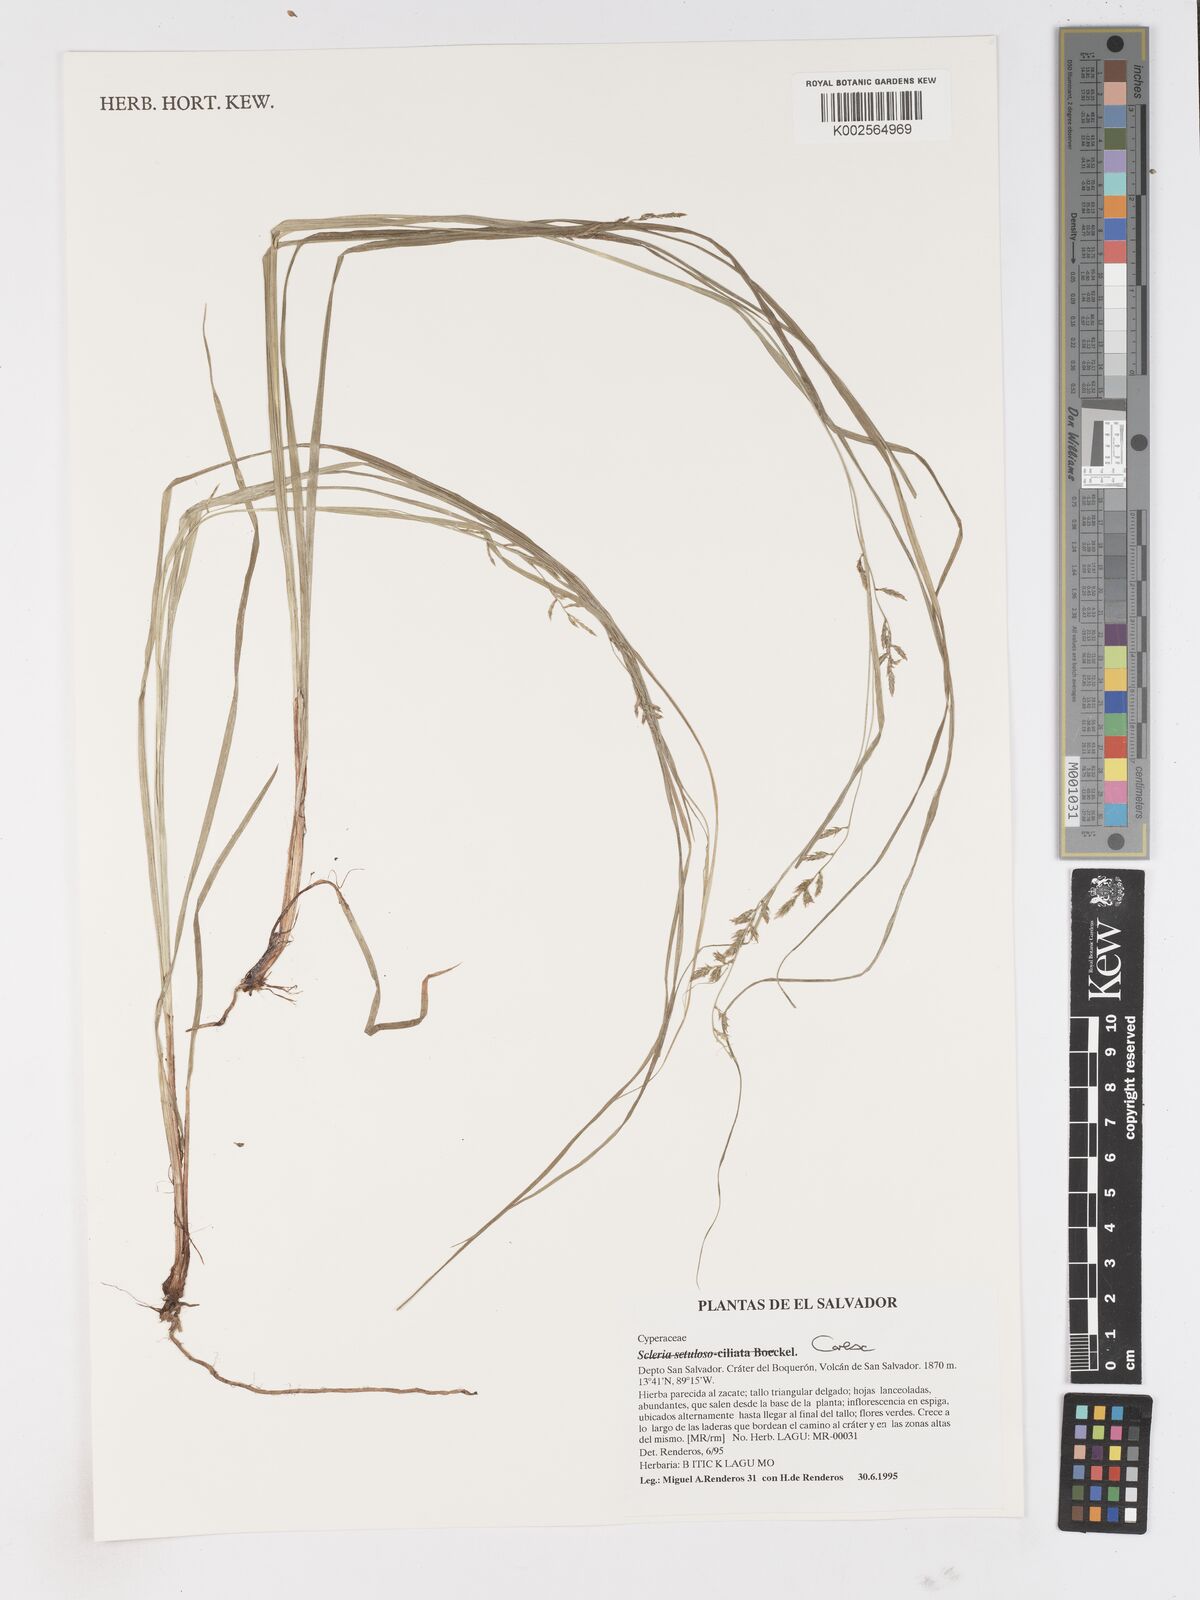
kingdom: Plantae
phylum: Tracheophyta
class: Liliopsida
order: Poales
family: Cyperaceae
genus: Carex
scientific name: Carex
